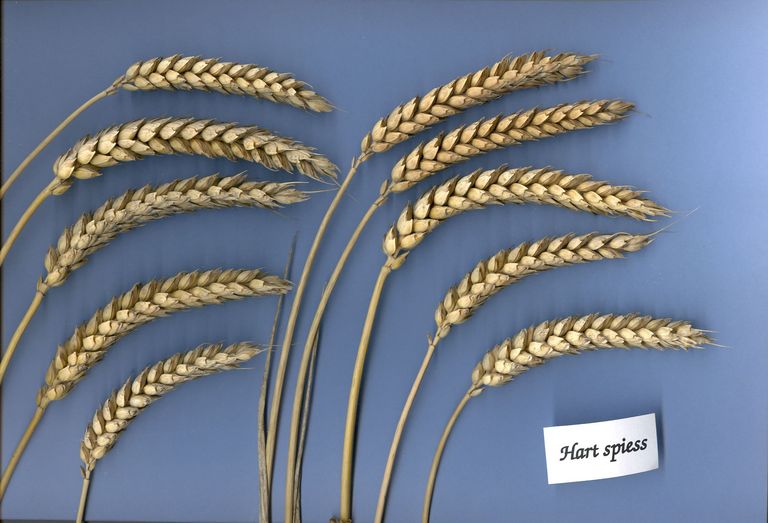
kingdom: Plantae
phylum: Tracheophyta
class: Liliopsida
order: Poales
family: Poaceae
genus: Triticum
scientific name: Triticum aestivum
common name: Common wheat
